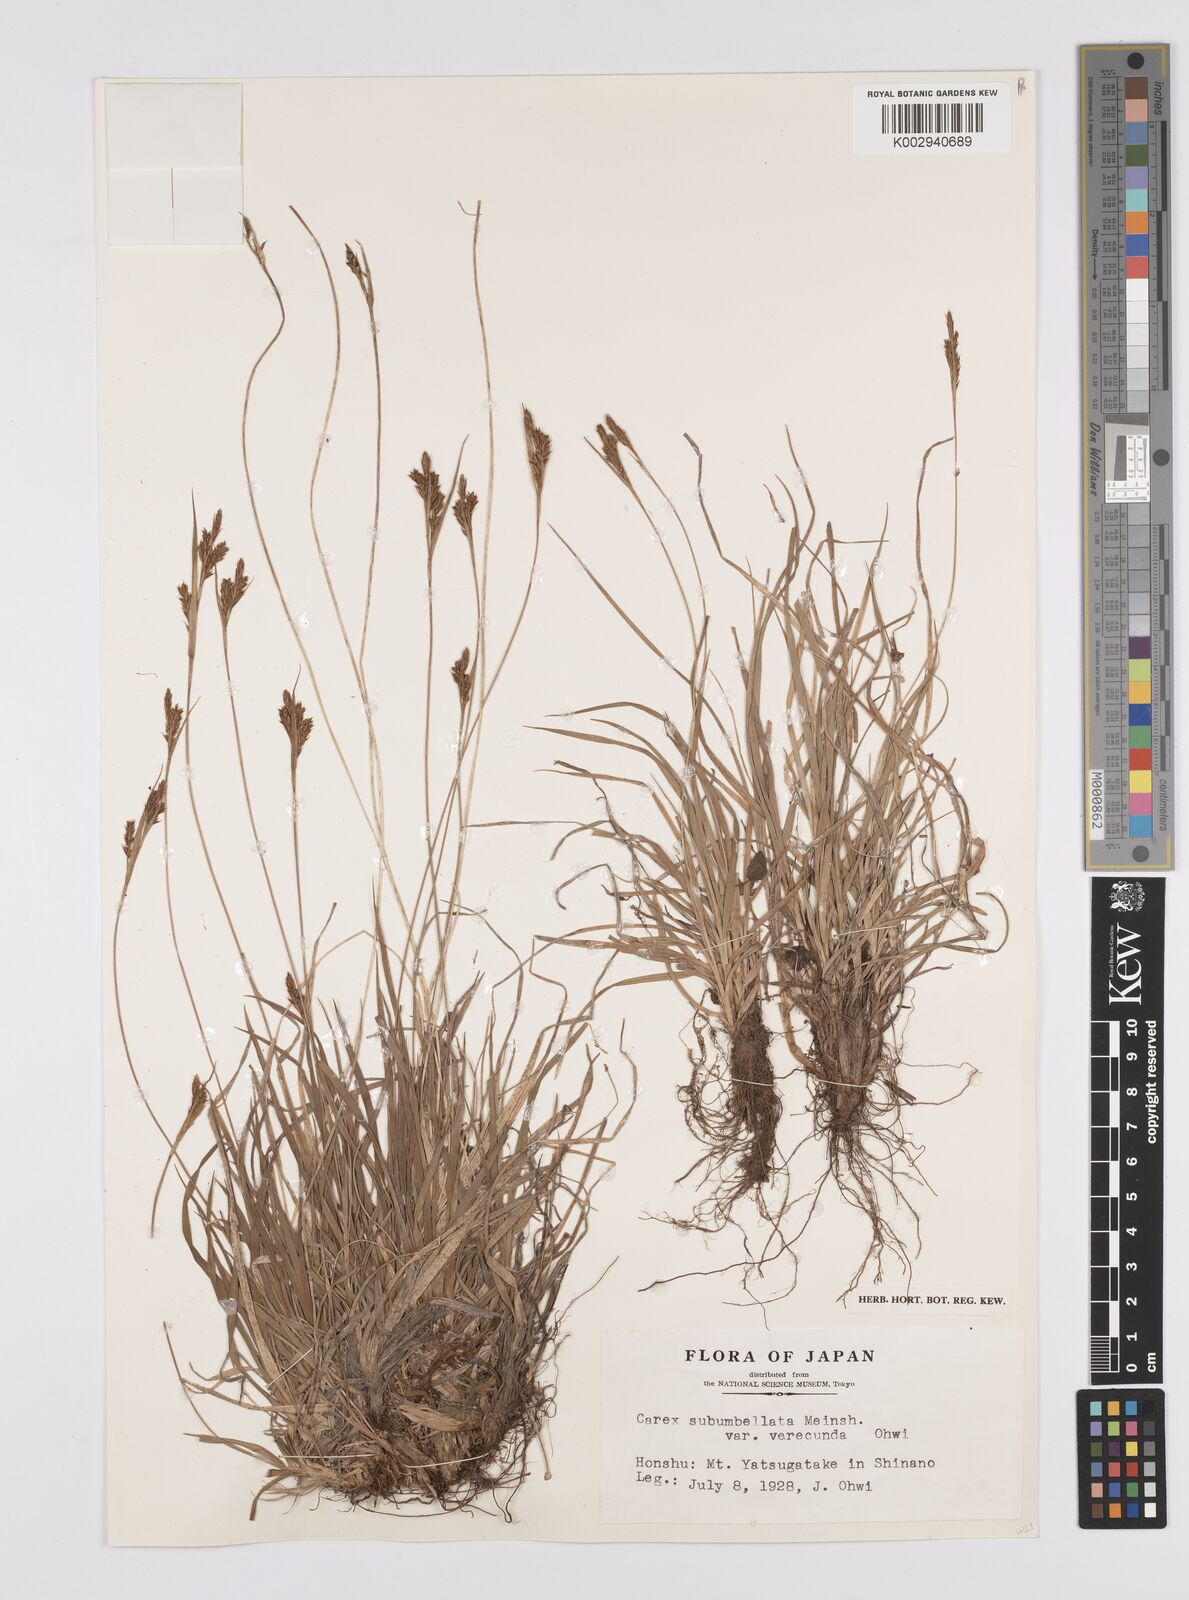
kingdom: Plantae
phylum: Tracheophyta
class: Liliopsida
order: Poales
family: Cyperaceae
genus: Carex
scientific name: Carex subumbellata
